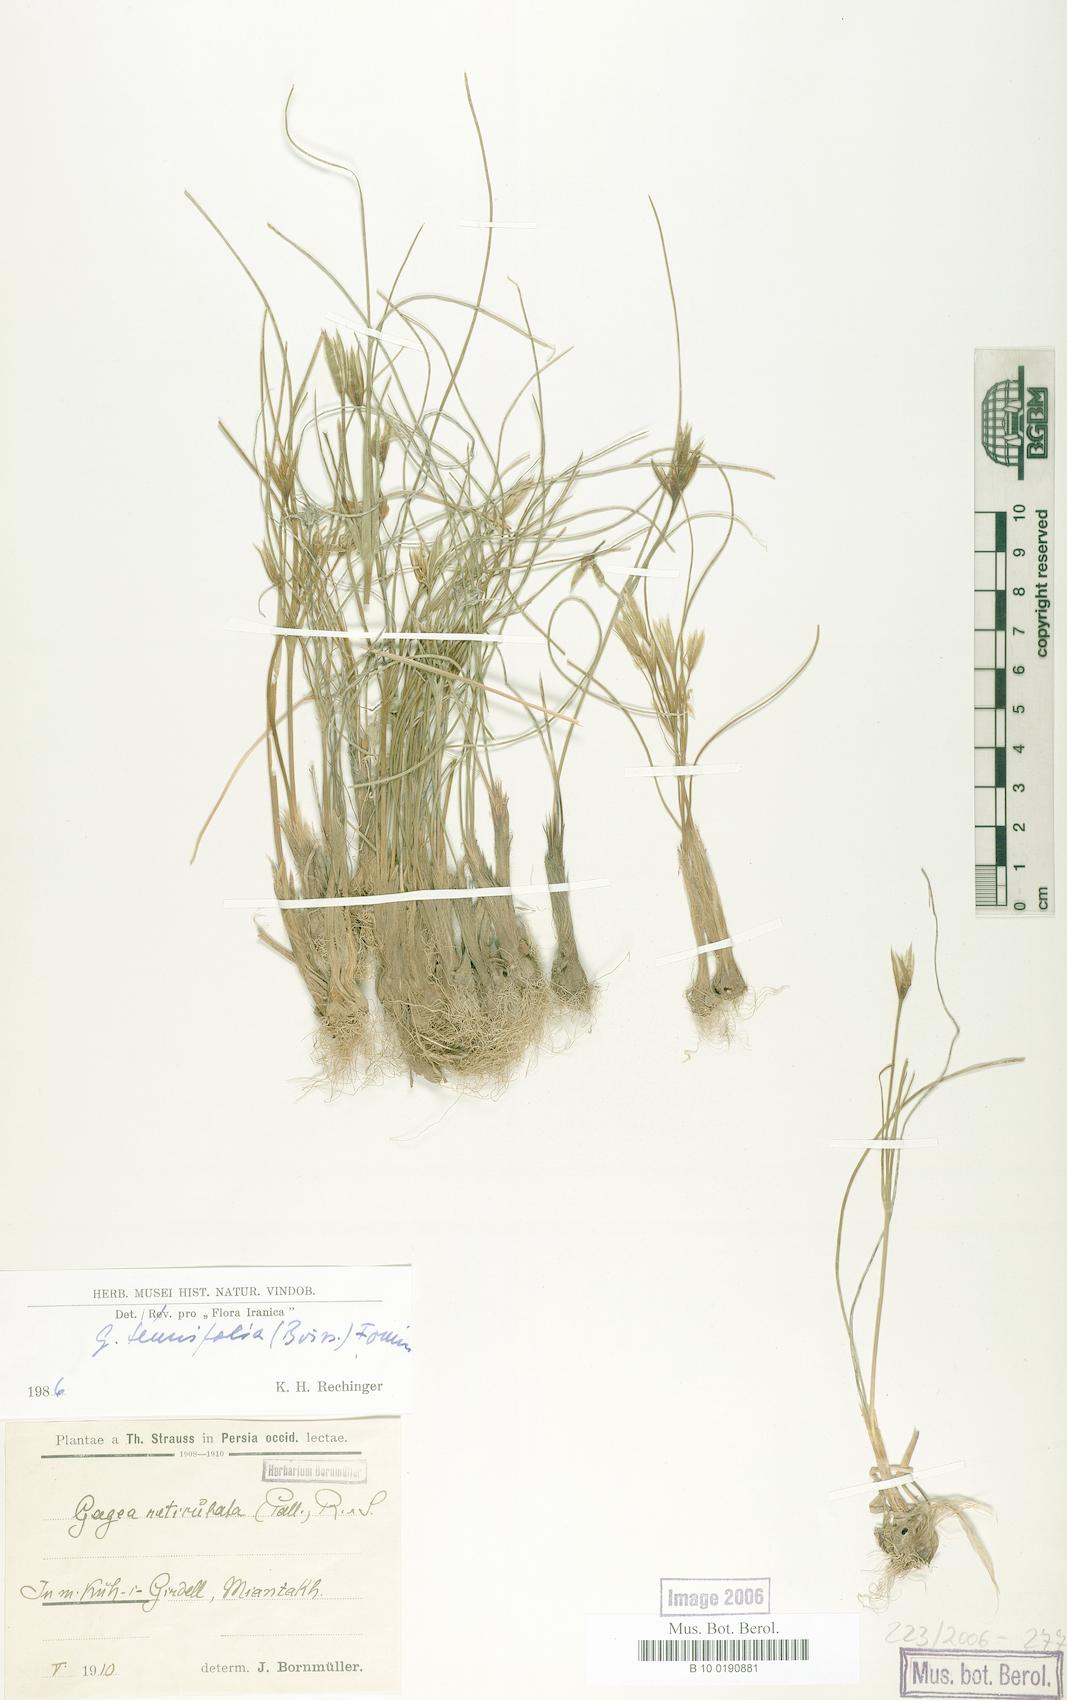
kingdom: Plantae
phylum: Tracheophyta
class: Liliopsida
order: Liliales
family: Liliaceae
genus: Gagea
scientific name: Gagea reticulata
